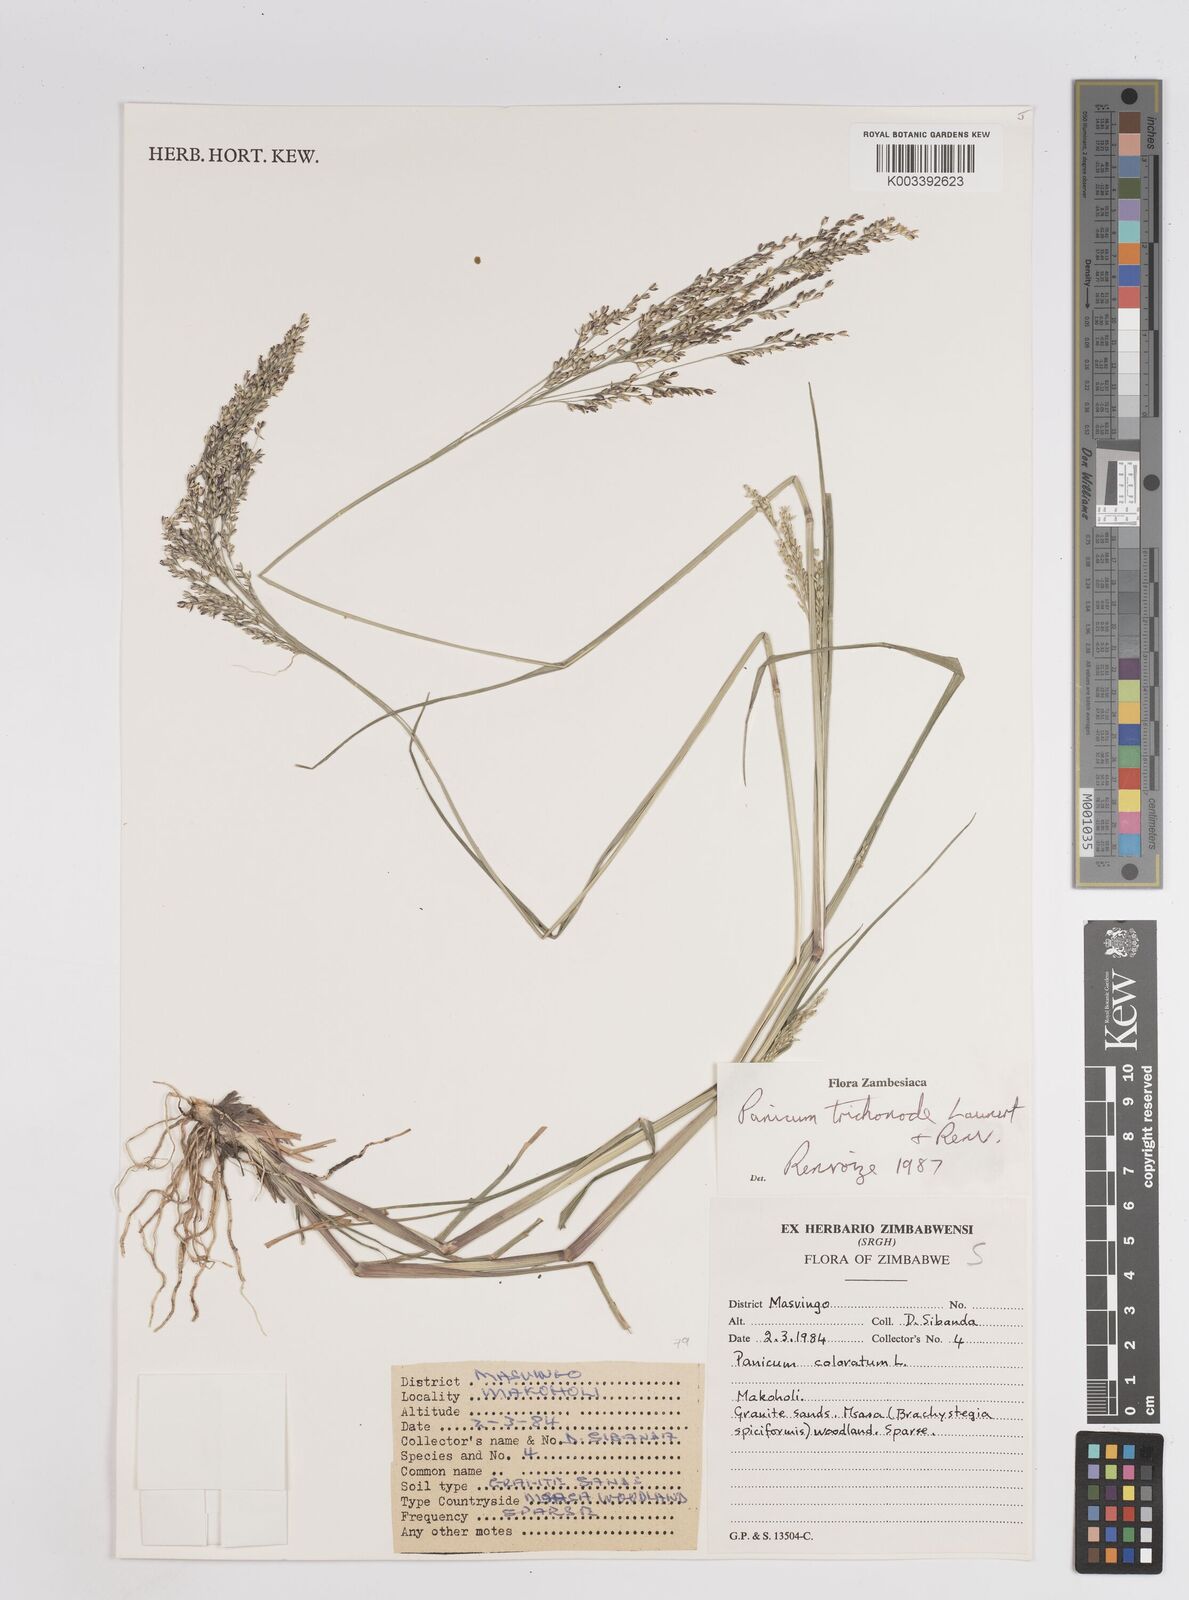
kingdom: Plantae
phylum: Tracheophyta
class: Liliopsida
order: Poales
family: Poaceae
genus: Panicum
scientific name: Panicum trichonode
